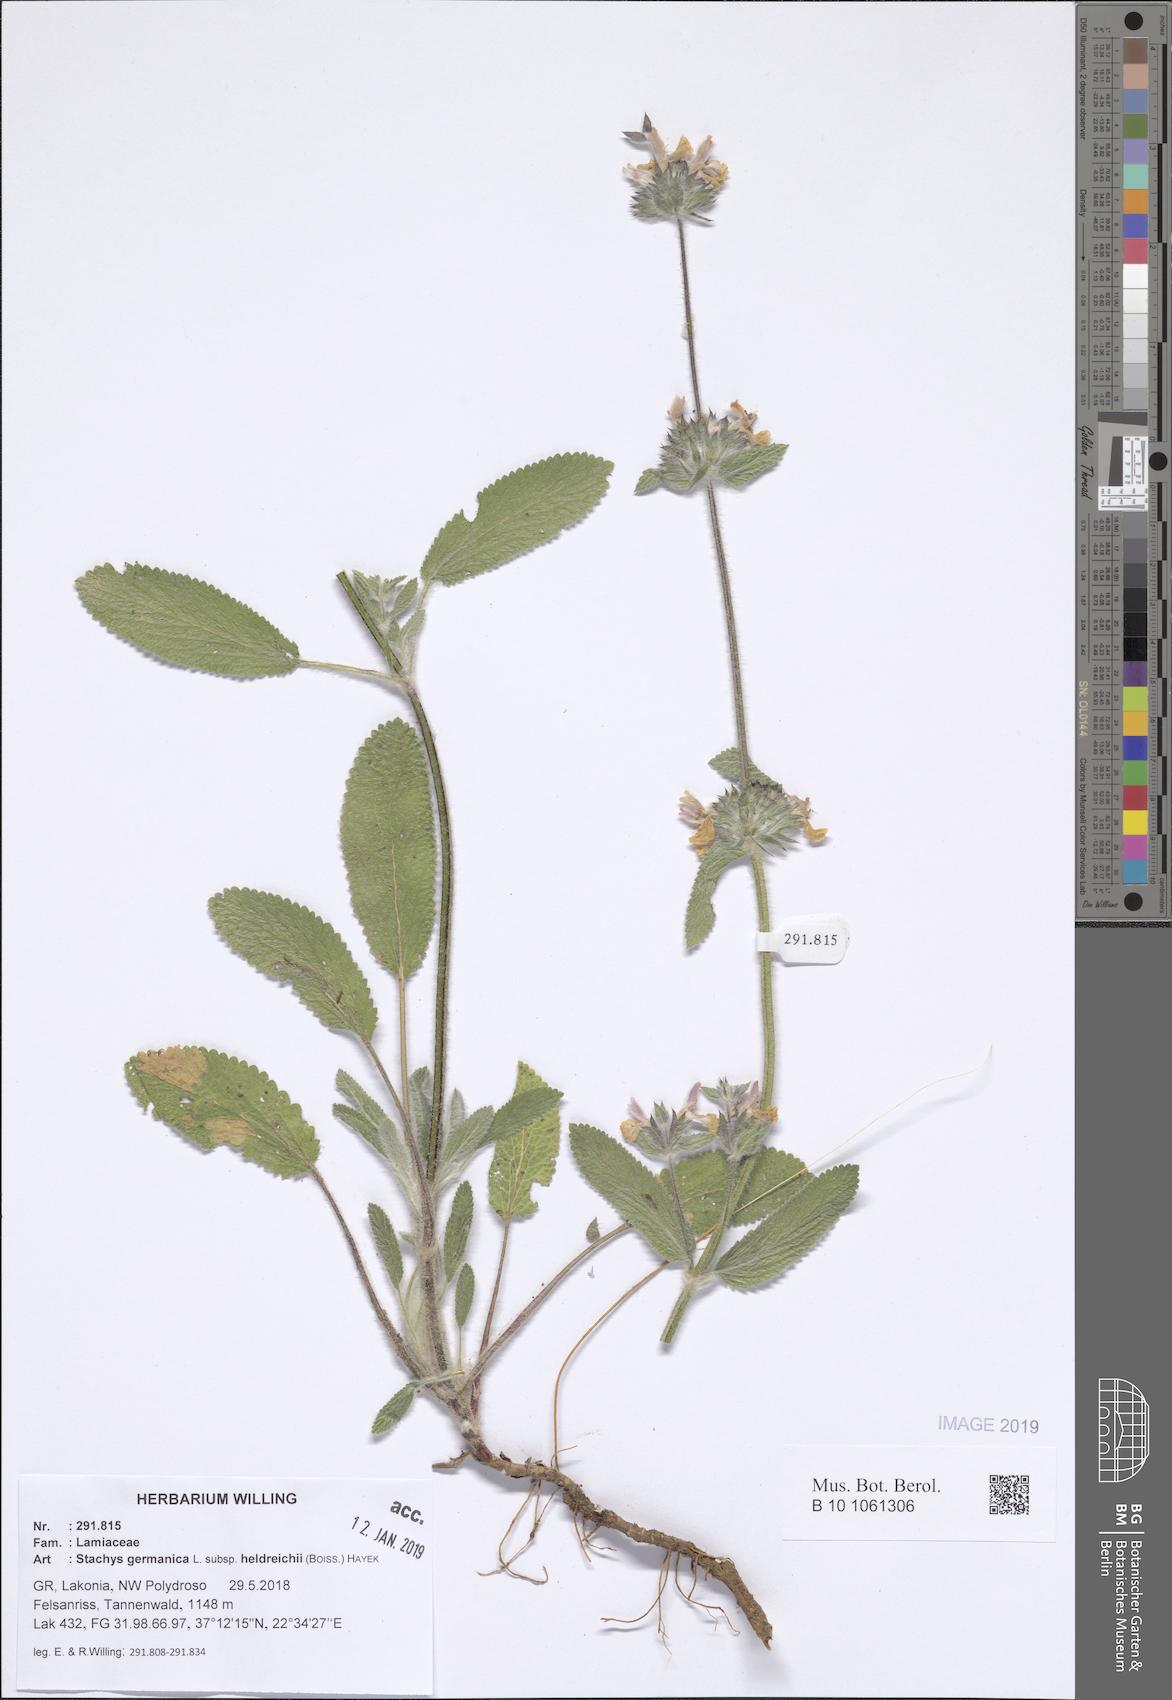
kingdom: Plantae
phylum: Tracheophyta
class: Magnoliopsida
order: Lamiales
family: Lamiaceae
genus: Stachys
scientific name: Stachys germanica
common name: Downy woundwort
